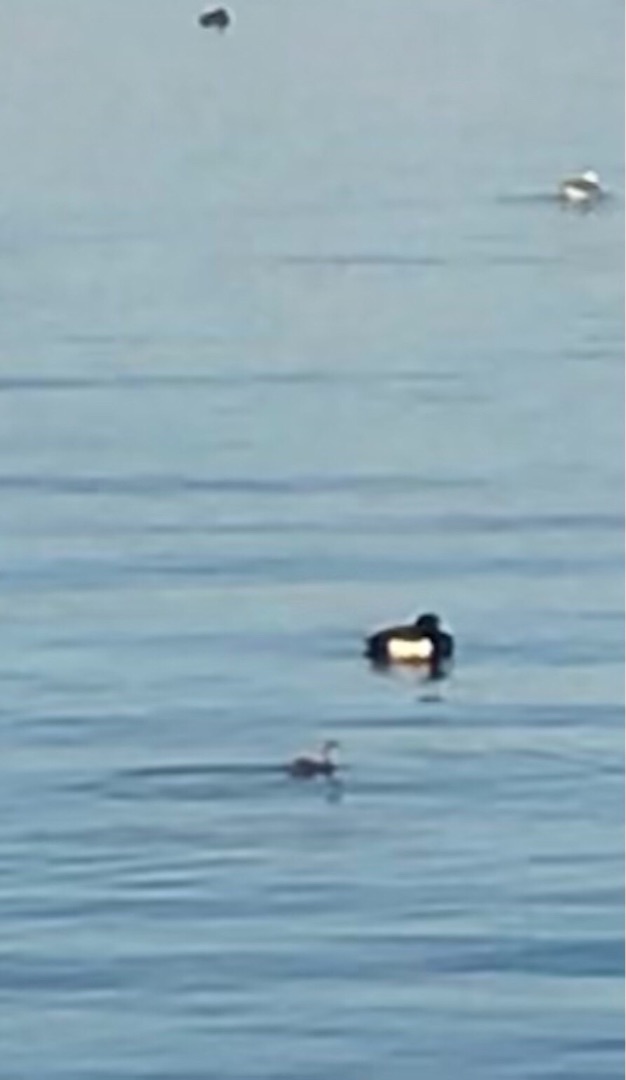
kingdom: Animalia
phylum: Chordata
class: Aves
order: Podicipediformes
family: Podicipedidae
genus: Tachybaptus
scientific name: Tachybaptus ruficollis
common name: Lille lappedykker
